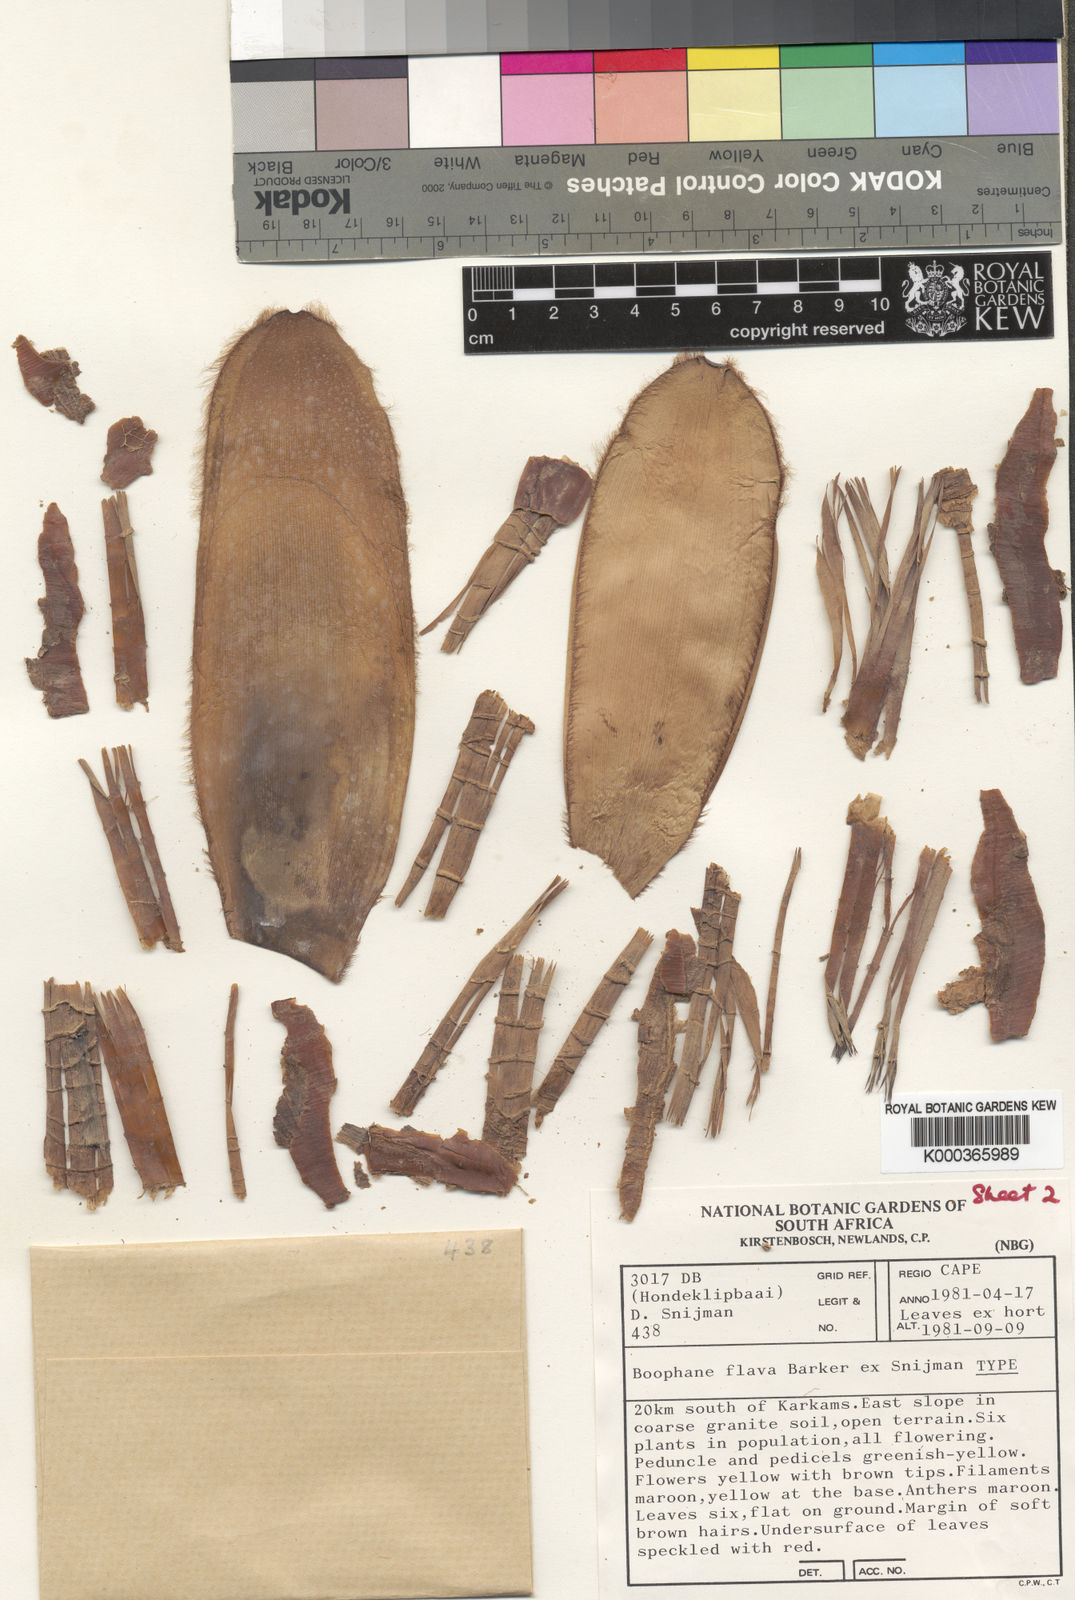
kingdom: Plantae
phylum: Tracheophyta
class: Liliopsida
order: Asparagales
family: Amaryllidaceae
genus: Crossyne
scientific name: Crossyne flava
